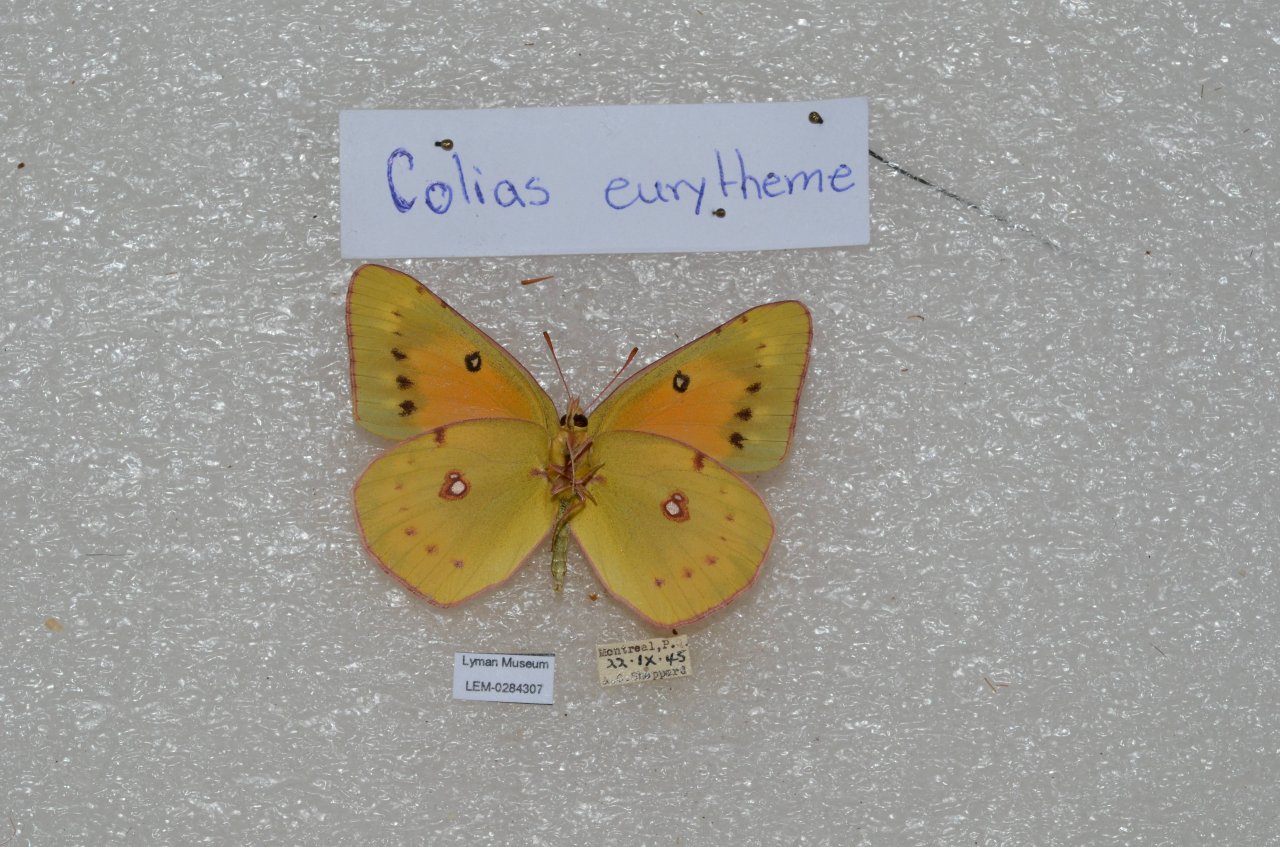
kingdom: Animalia
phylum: Arthropoda
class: Insecta
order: Lepidoptera
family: Pieridae
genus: Colias
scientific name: Colias eurytheme
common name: Orange Sulphur
